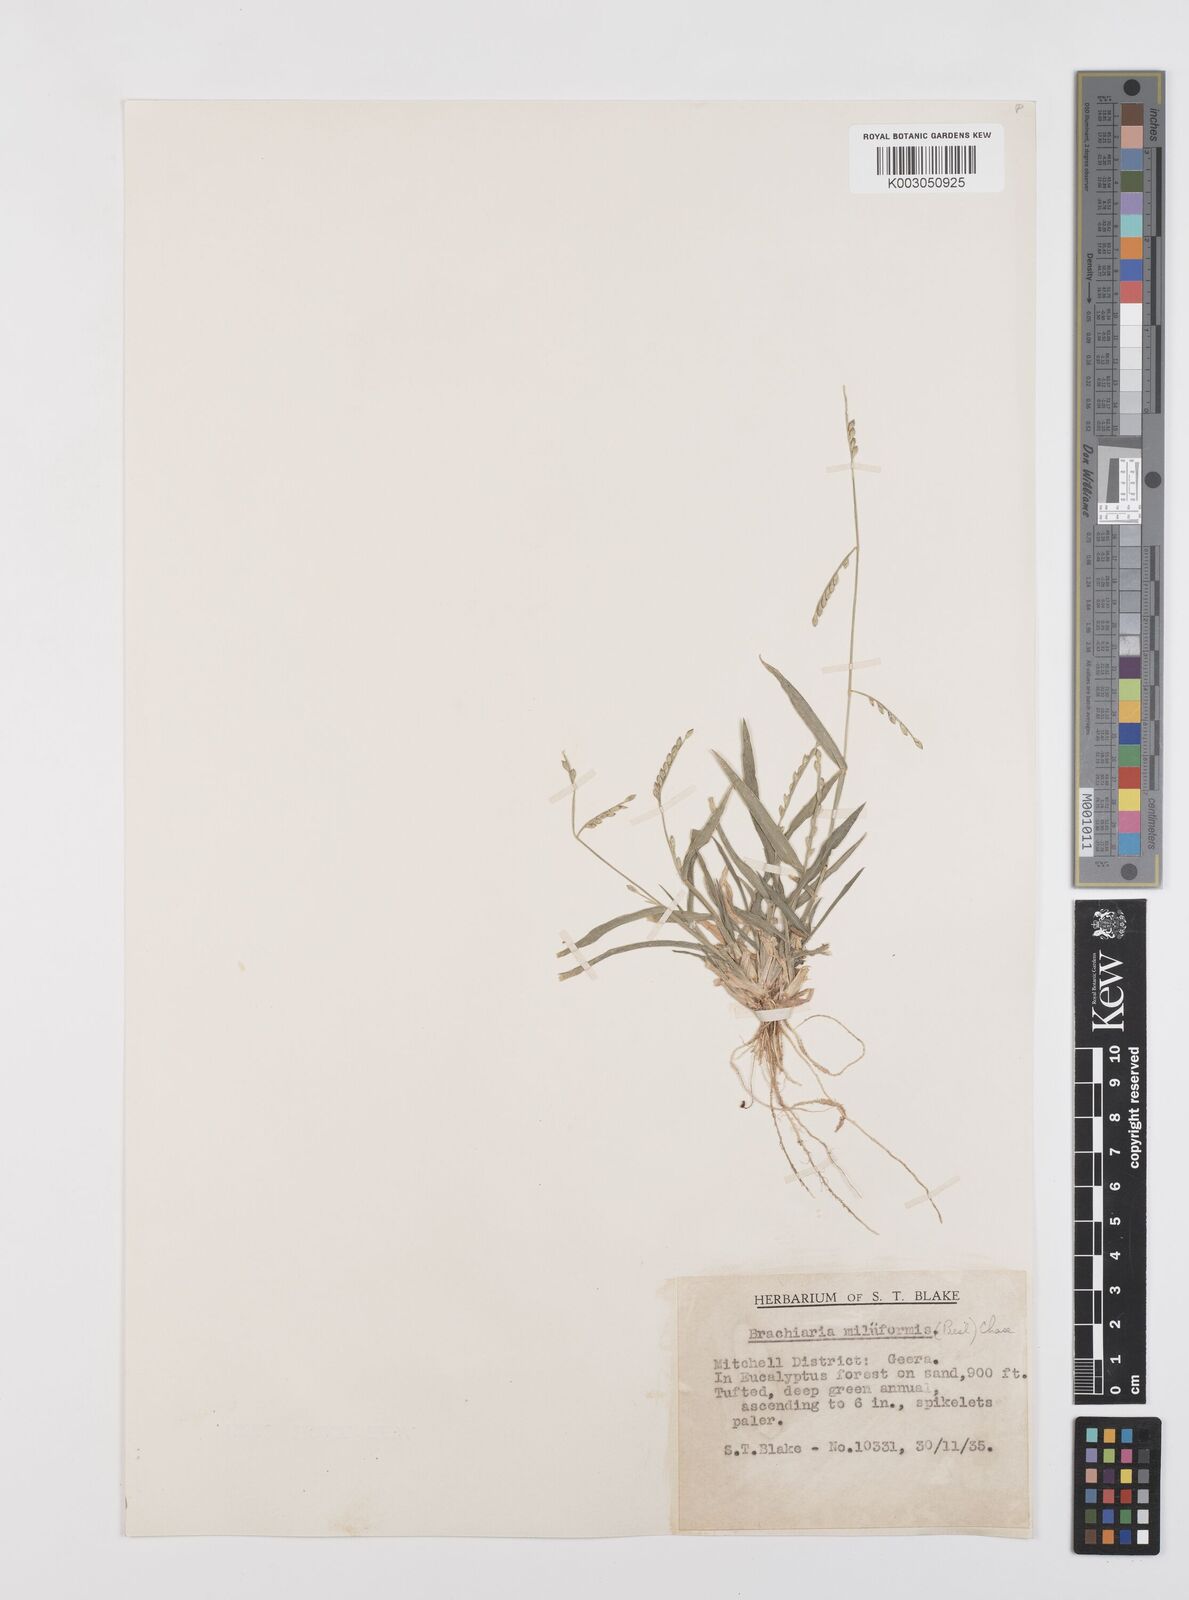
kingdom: Plantae
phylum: Tracheophyta
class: Liliopsida
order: Poales
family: Poaceae
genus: Urochloa
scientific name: Urochloa subquadripara
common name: Armgrass millet
